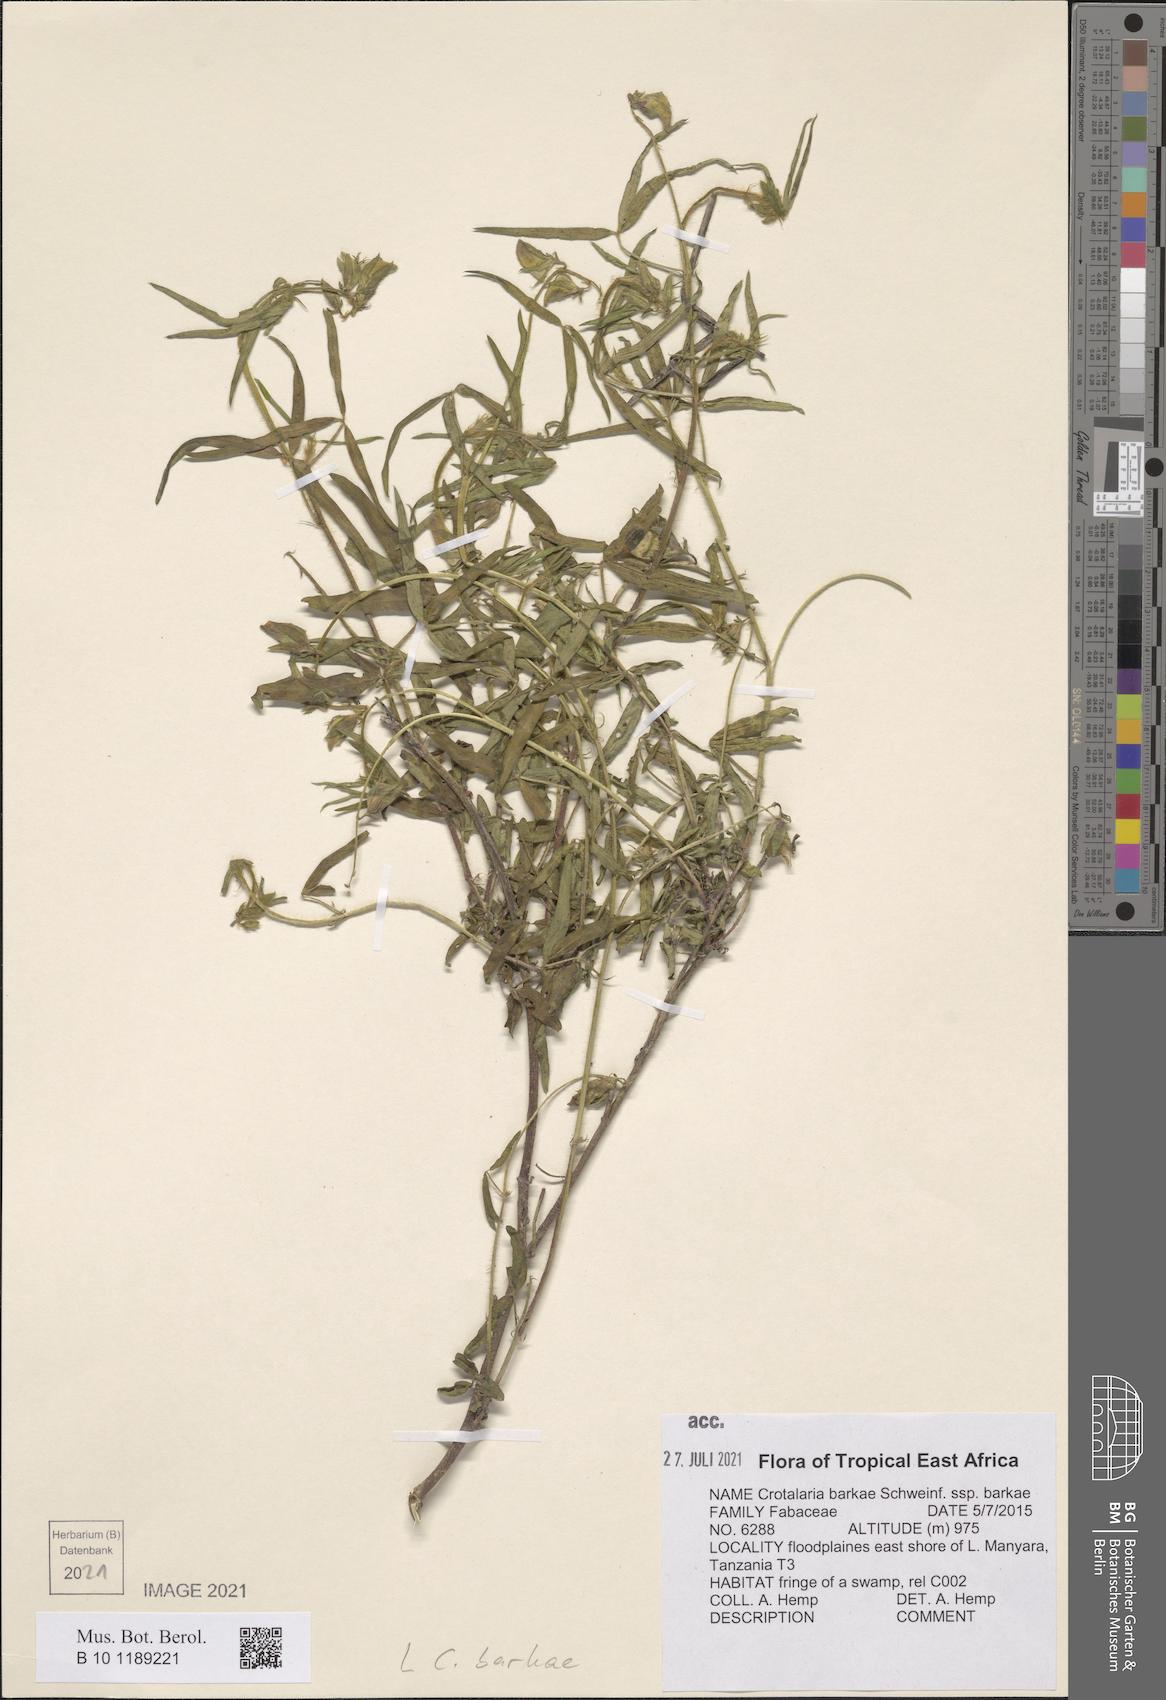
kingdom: Plantae
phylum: Tracheophyta
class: Magnoliopsida
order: Fabales
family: Fabaceae
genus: Crotalaria
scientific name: Crotalaria barkae
